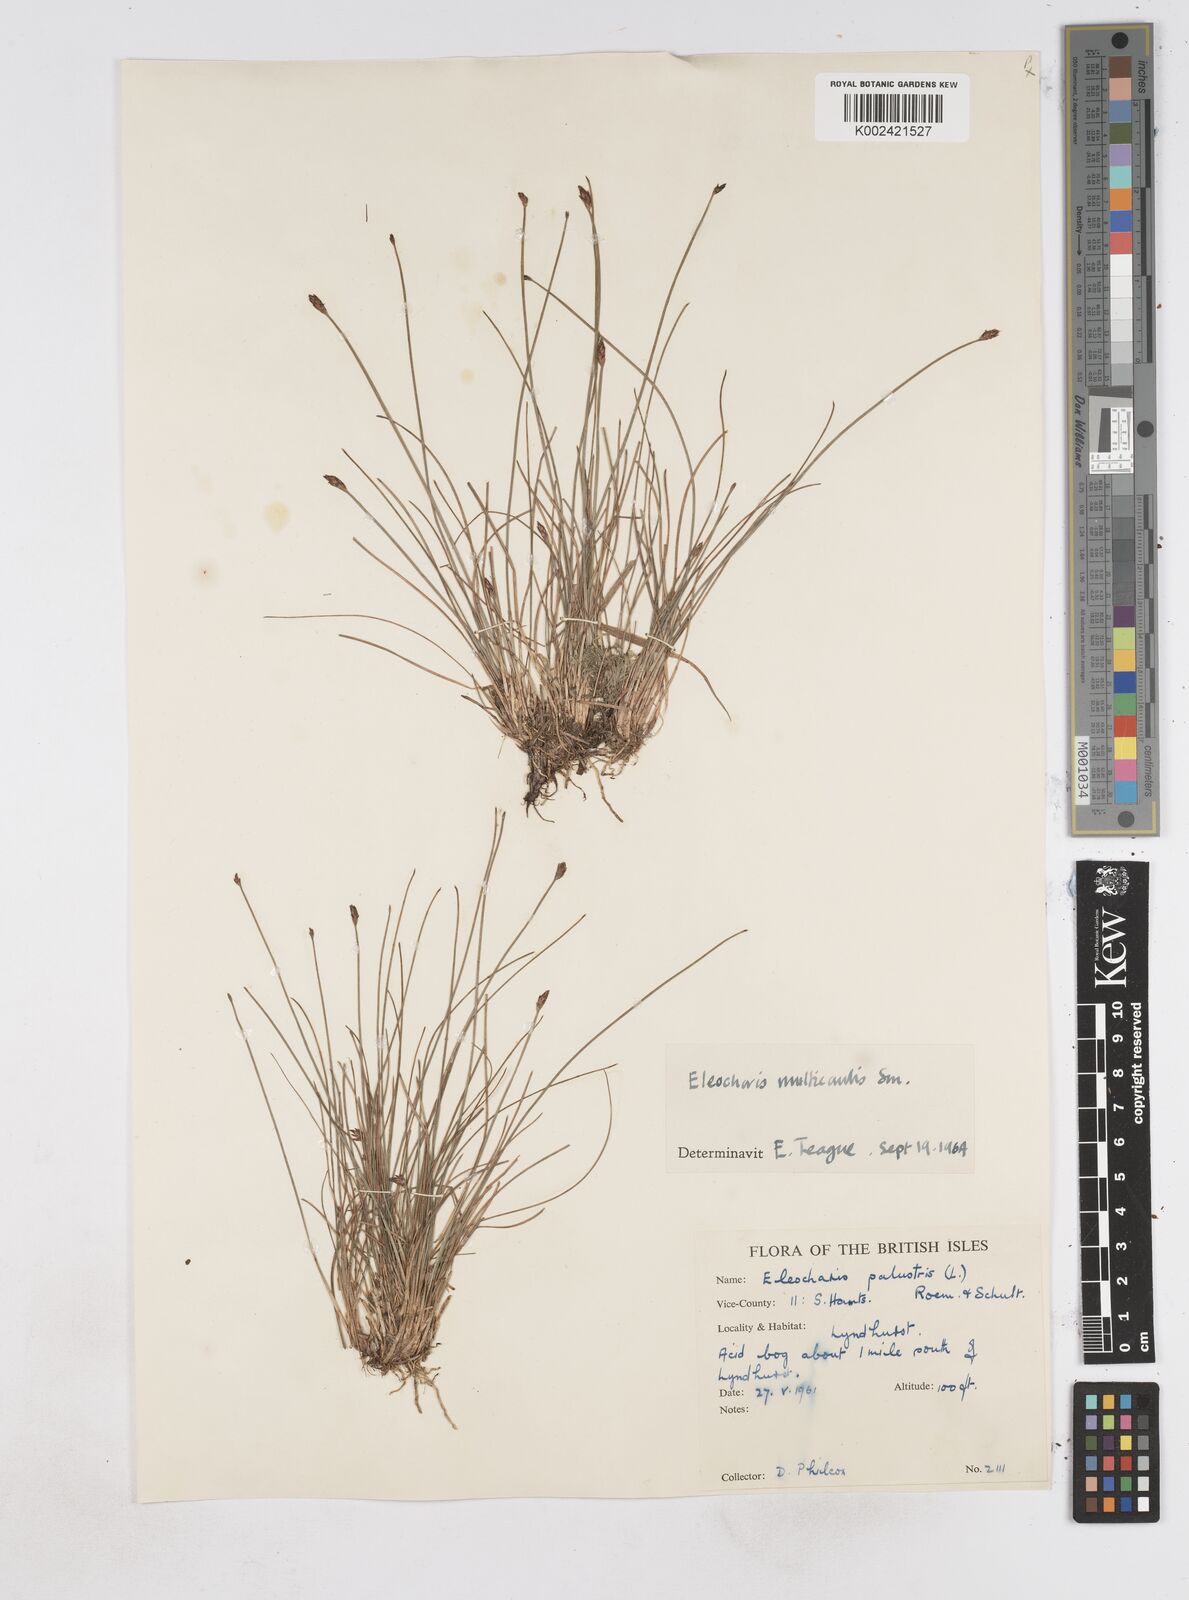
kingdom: Plantae
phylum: Tracheophyta
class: Liliopsida
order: Poales
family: Cyperaceae
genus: Eleocharis
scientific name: Eleocharis multicaulis
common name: Many-stalked spike-rush
